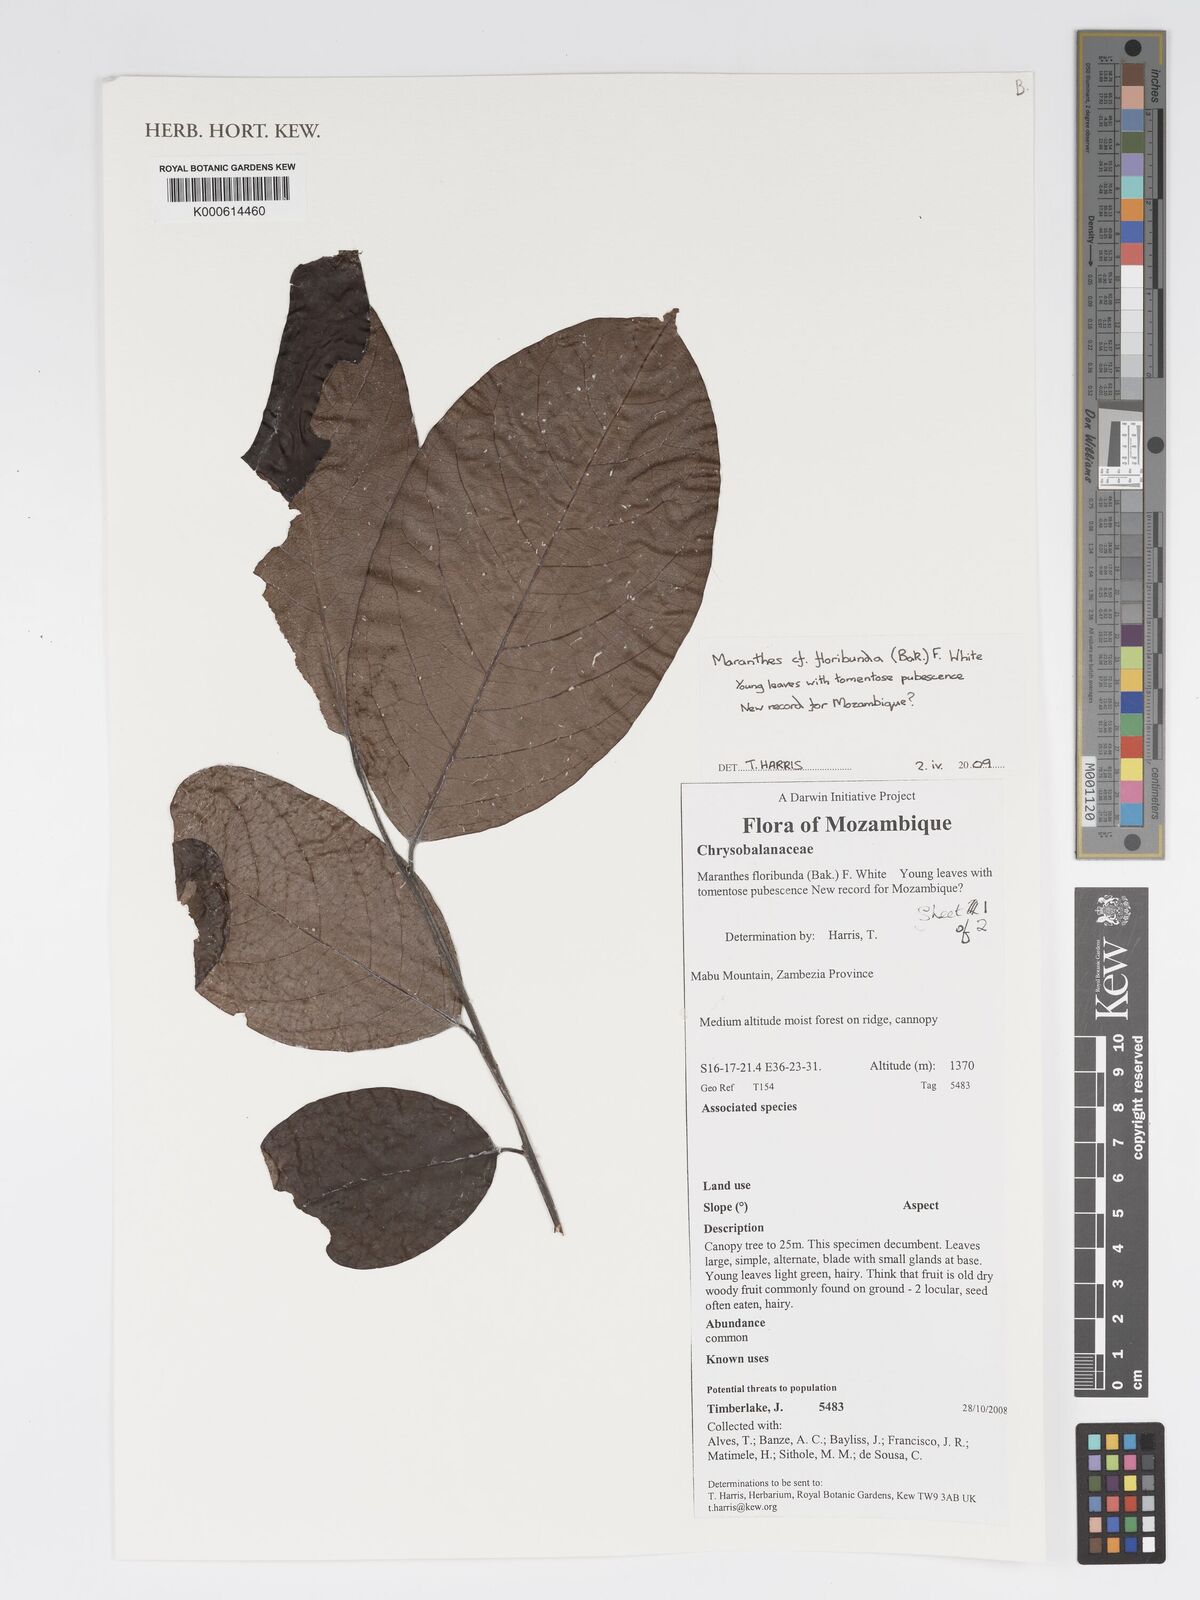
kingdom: Plantae
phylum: Tracheophyta
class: Magnoliopsida
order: Malpighiales
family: Chrysobalanaceae
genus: Maranthes
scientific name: Maranthes floribunda
